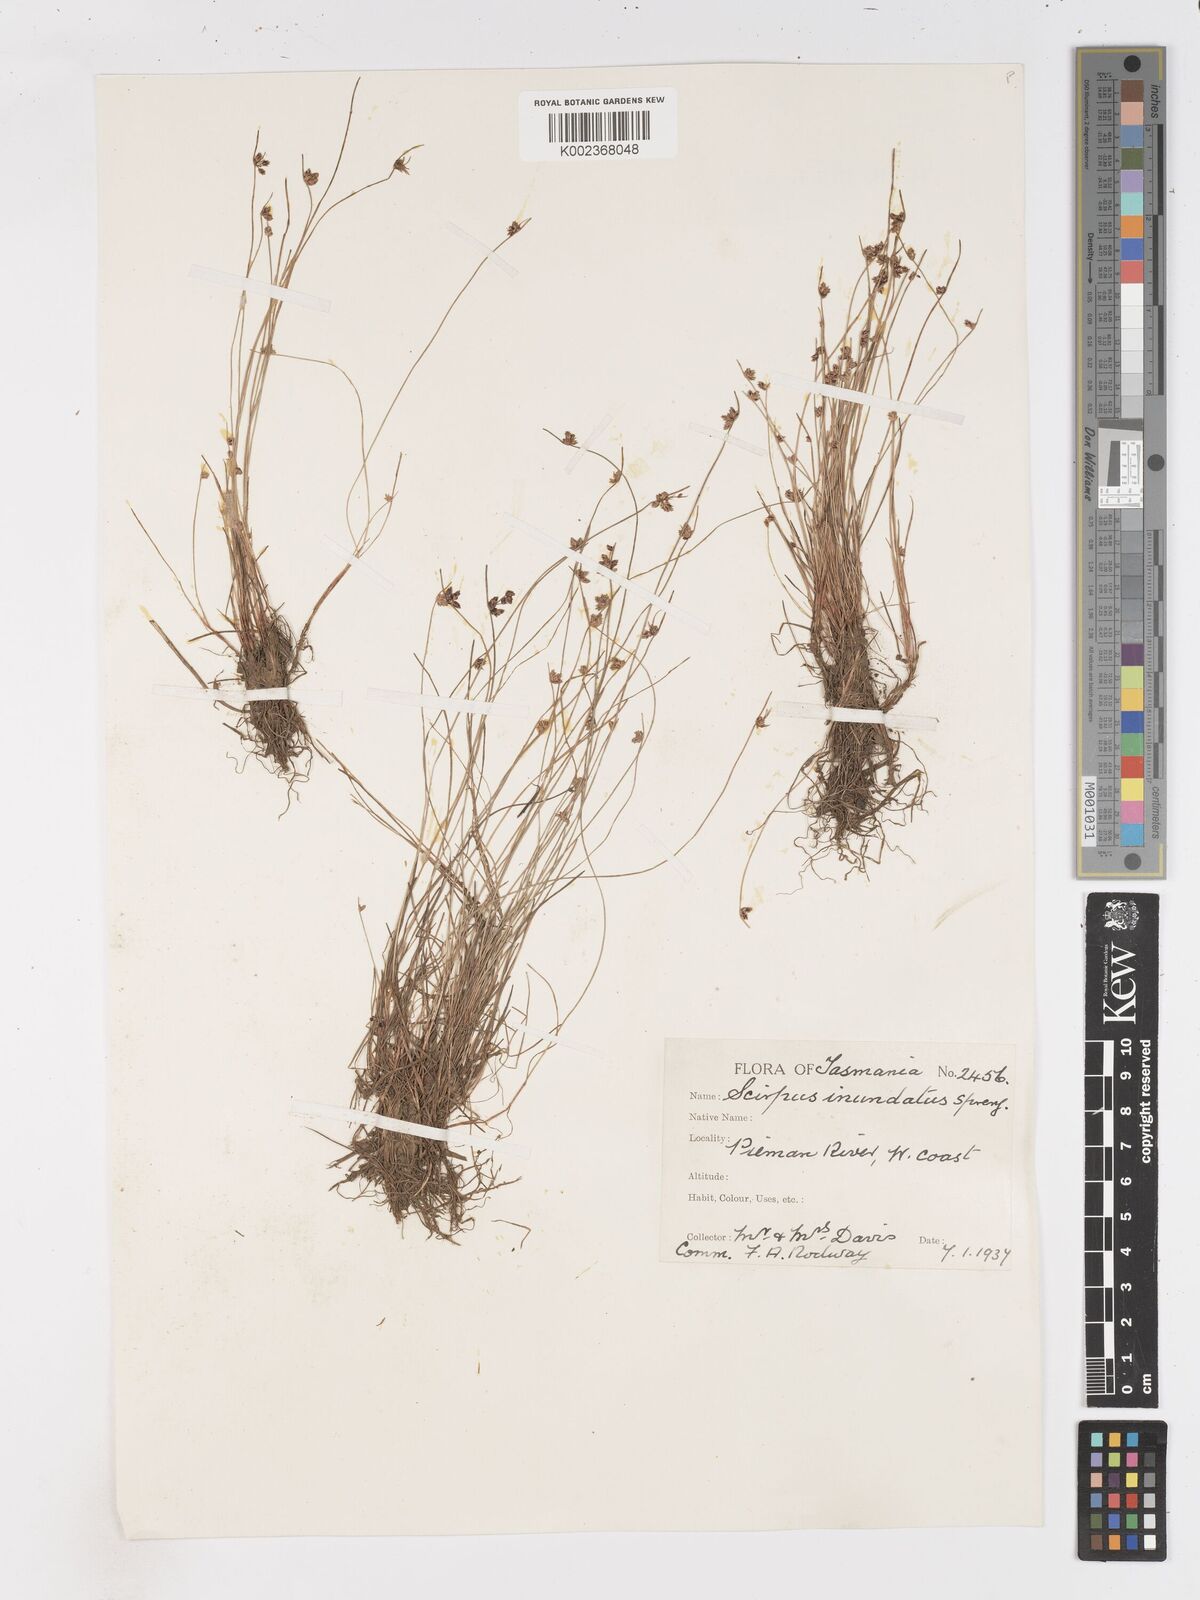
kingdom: Plantae
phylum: Tracheophyta
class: Liliopsida
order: Poales
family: Cyperaceae
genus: Isolepis
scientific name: Isolepis inundata
